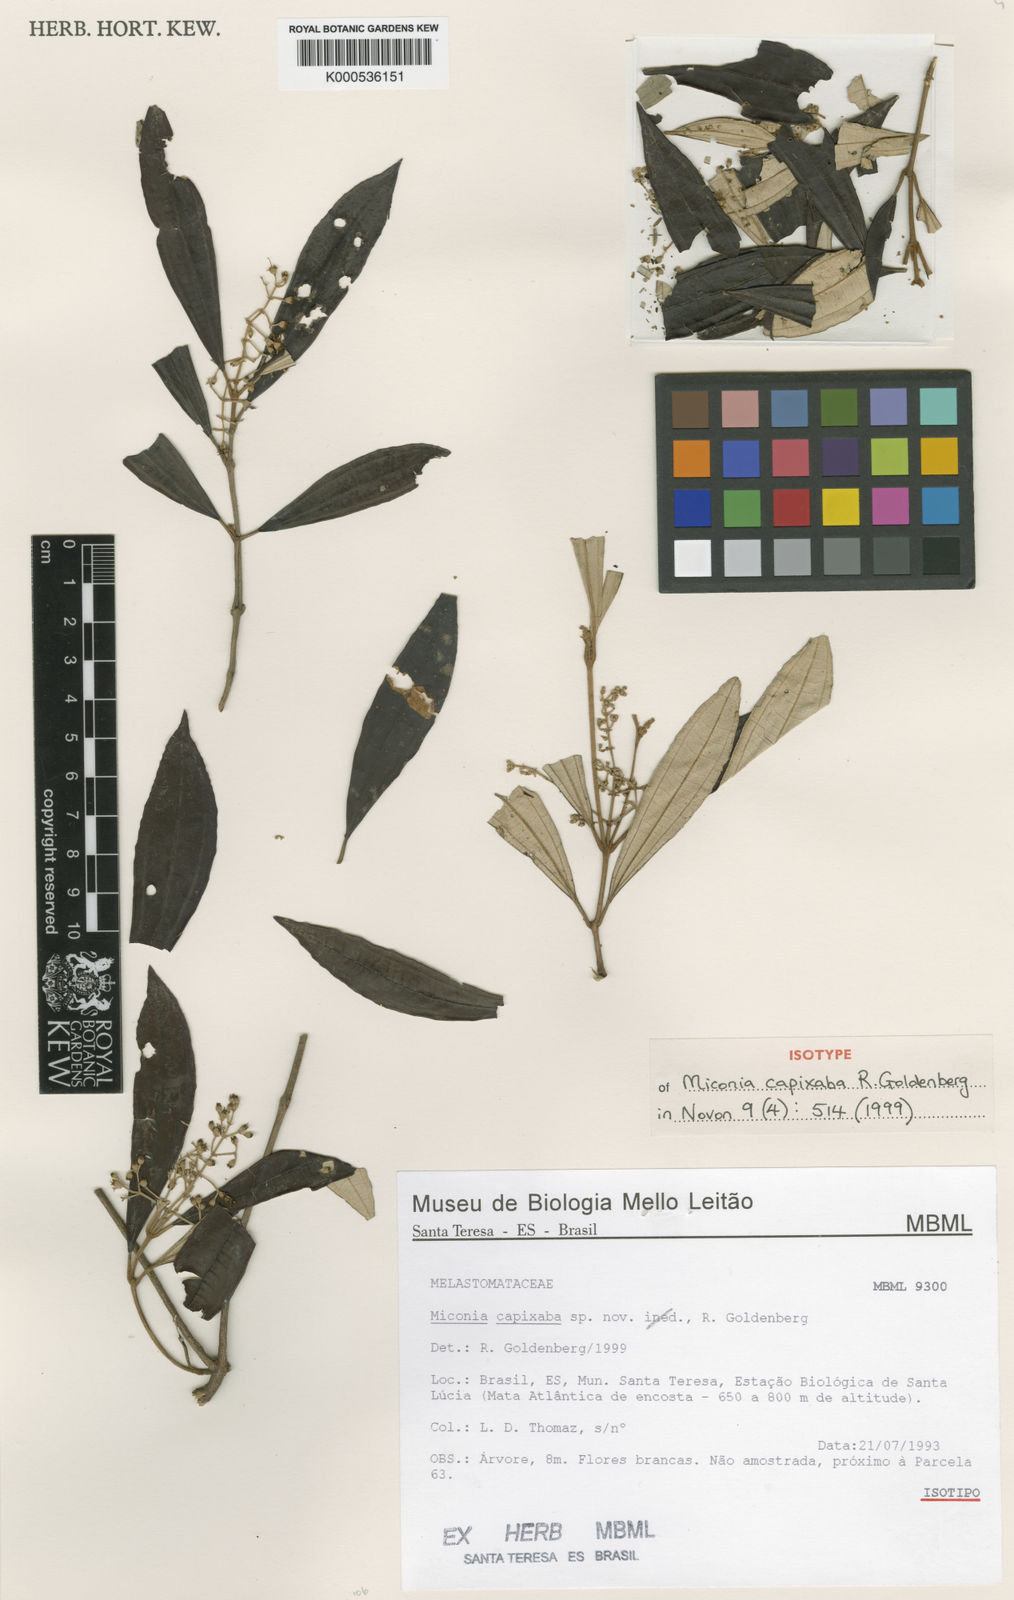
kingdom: Plantae
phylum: Tracheophyta
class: Magnoliopsida
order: Myrtales
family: Melastomataceae
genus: Miconia
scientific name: Miconia capixaba
